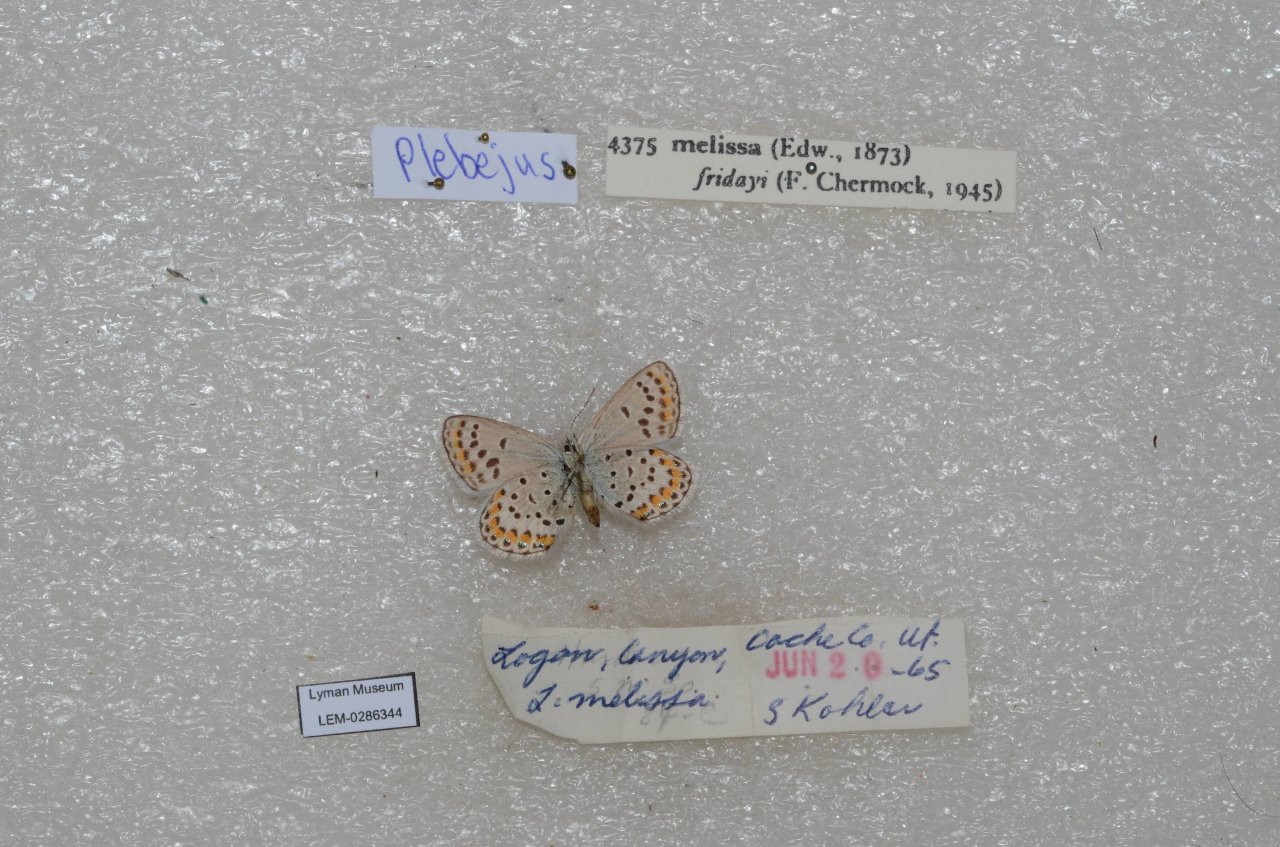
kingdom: Animalia
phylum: Arthropoda
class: Insecta
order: Lepidoptera
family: Nymphalidae
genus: Oeneis
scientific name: Oeneis melissa
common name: Melissa Arctic
